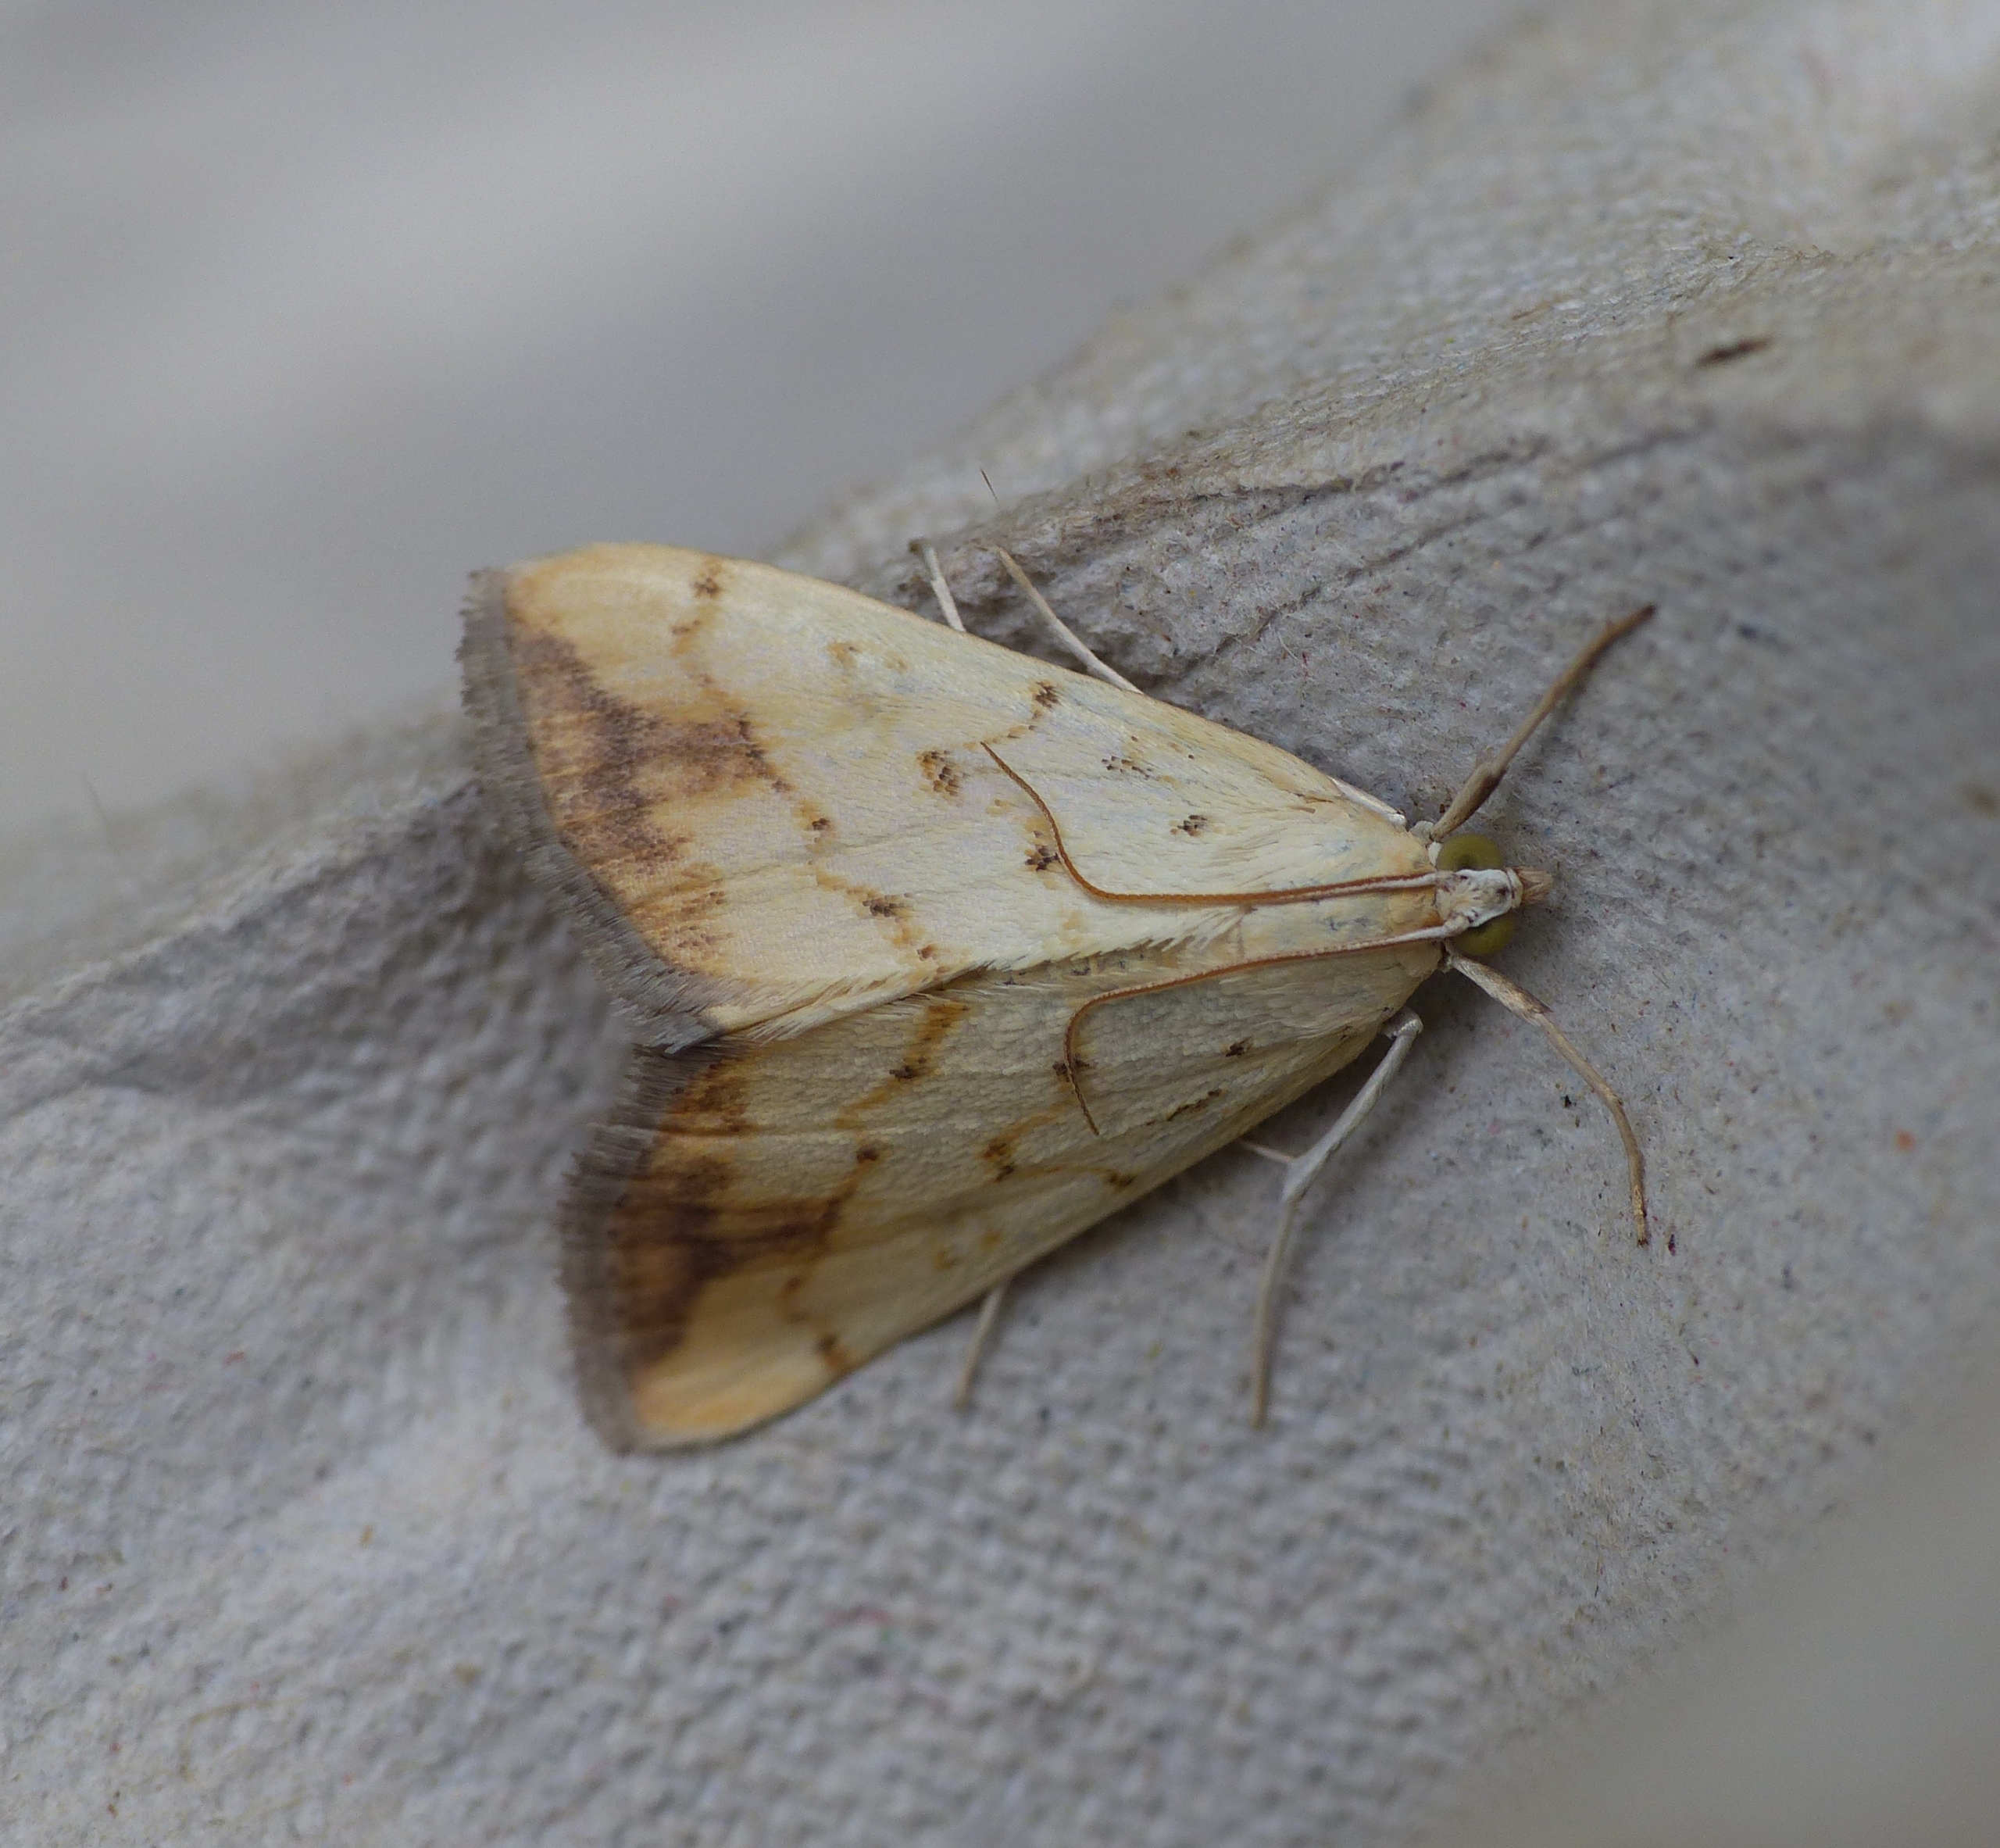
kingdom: Animalia
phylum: Arthropoda
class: Insecta
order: Lepidoptera
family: Crambidae
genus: Evergestis
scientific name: Evergestis extimalis
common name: Korsblomsthalvmøl
